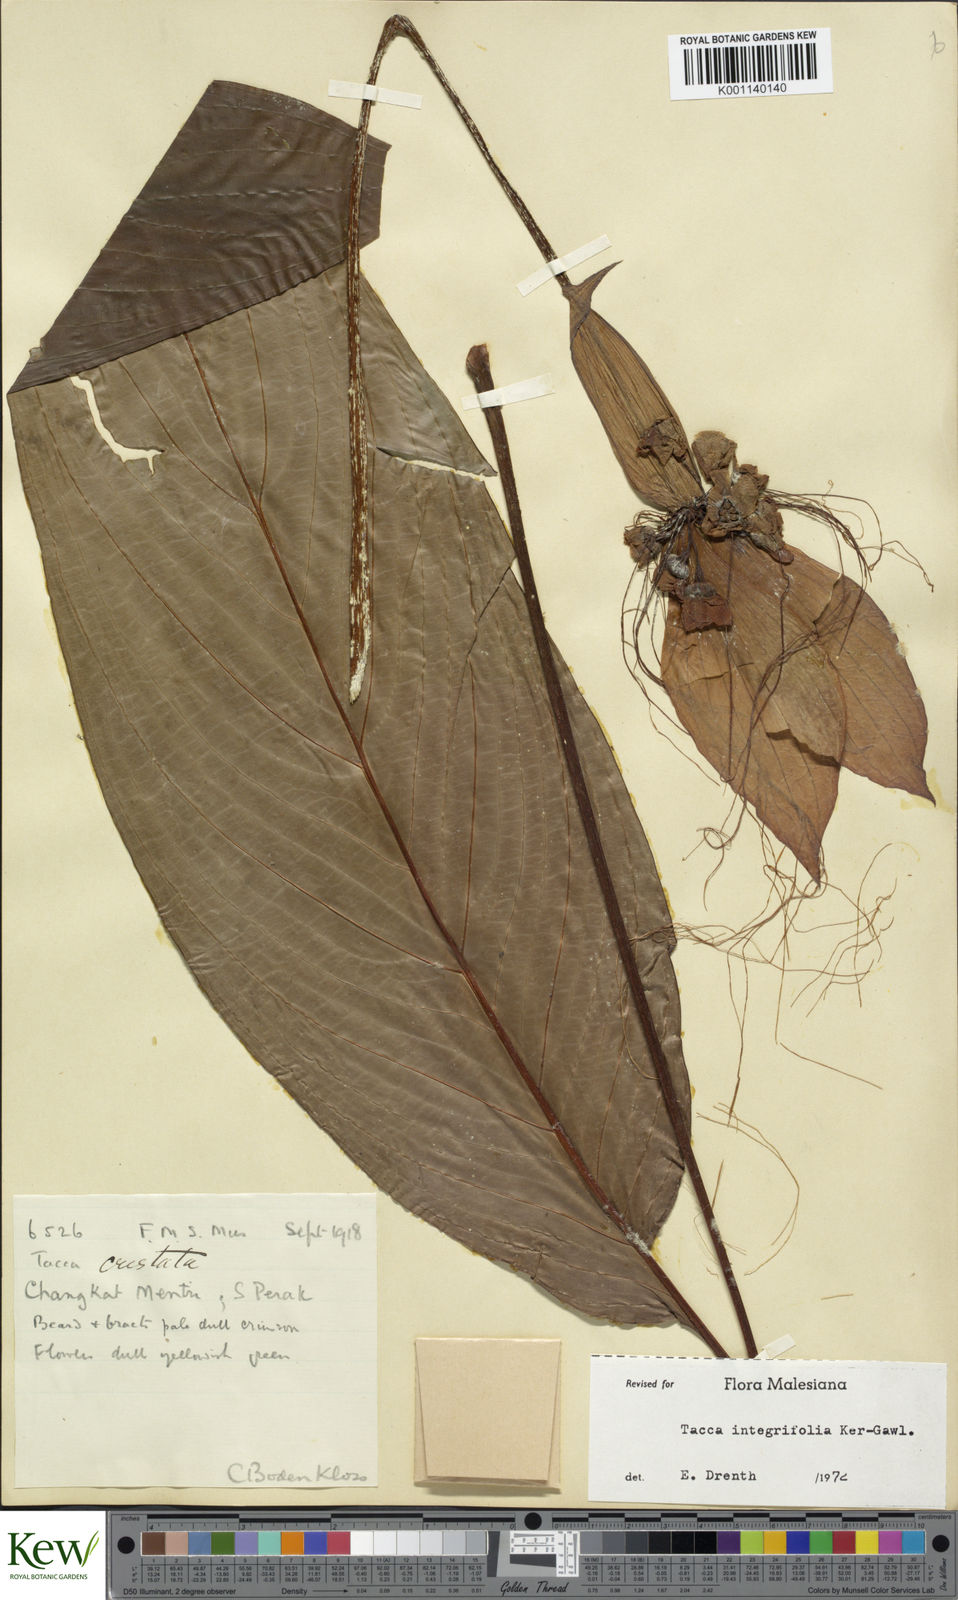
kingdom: Plantae
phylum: Tracheophyta
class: Liliopsida
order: Dioscoreales
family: Dioscoreaceae
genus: Tacca
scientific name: Tacca integrifolia
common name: Batplant
